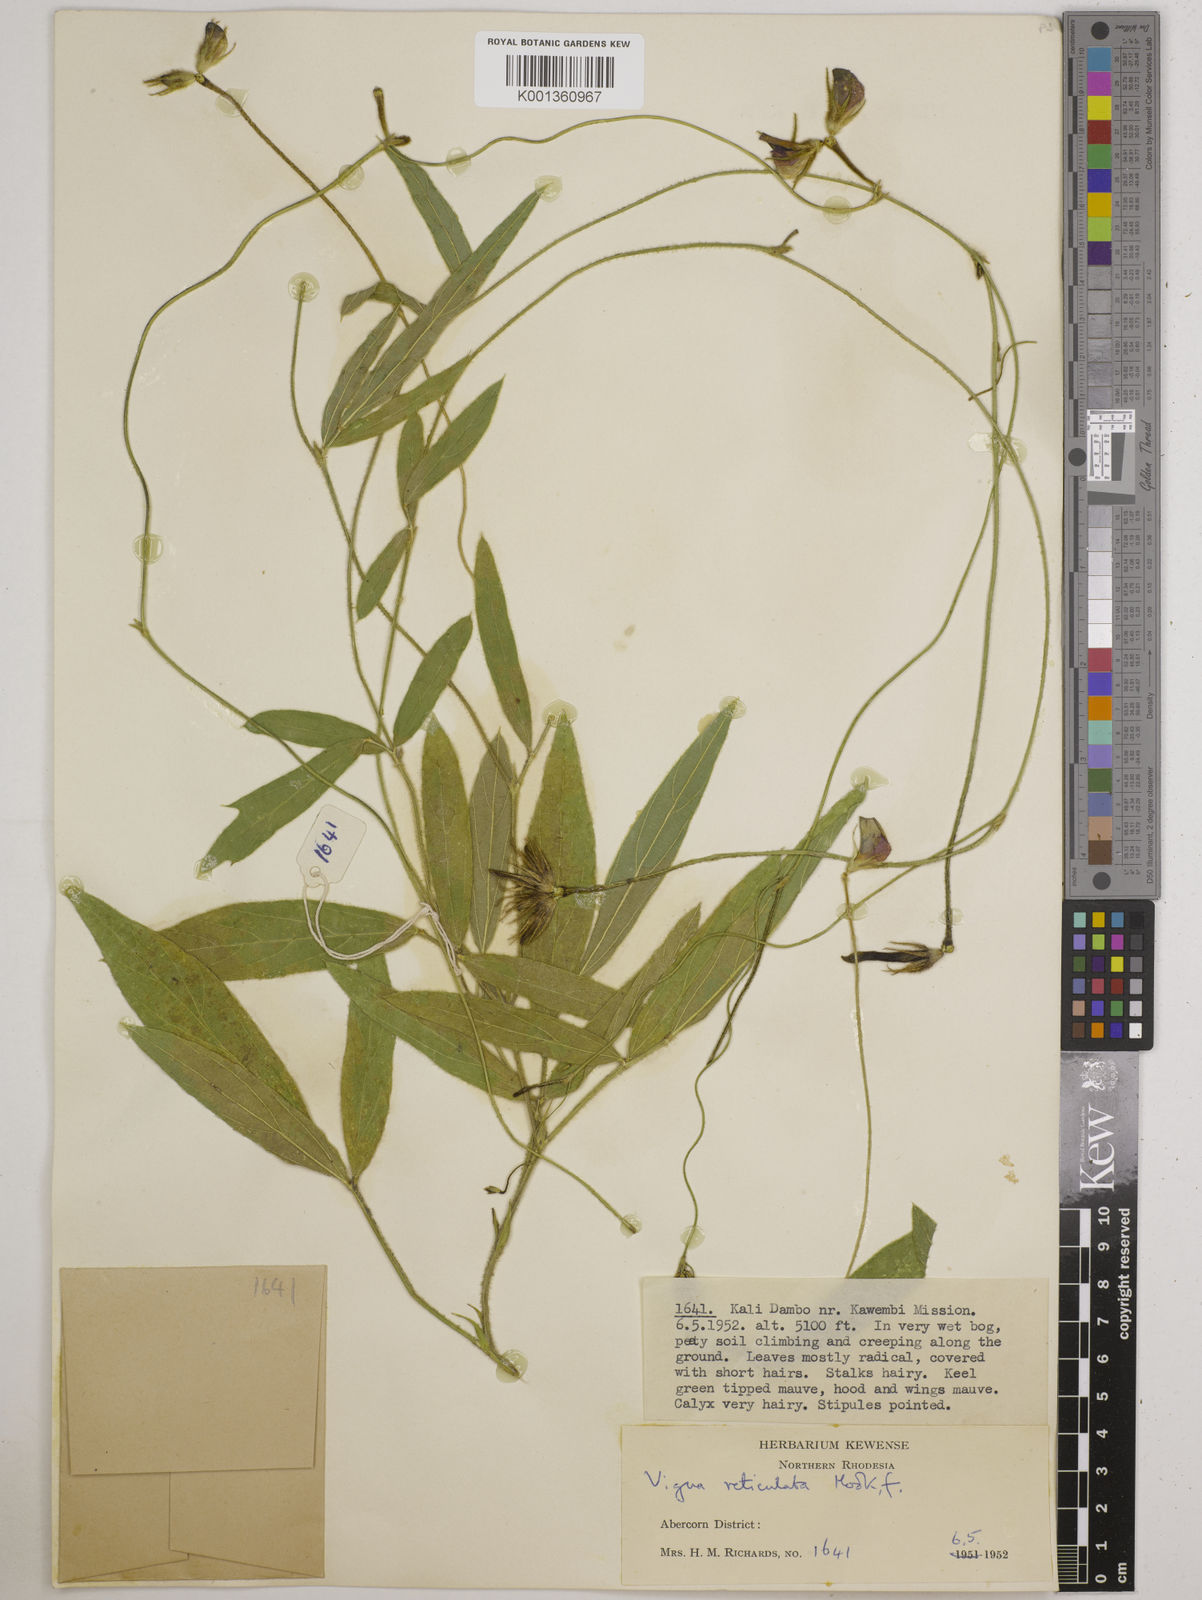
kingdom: Plantae
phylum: Tracheophyta
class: Magnoliopsida
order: Fabales
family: Fabaceae
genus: Vigna
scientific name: Vigna reticulata
